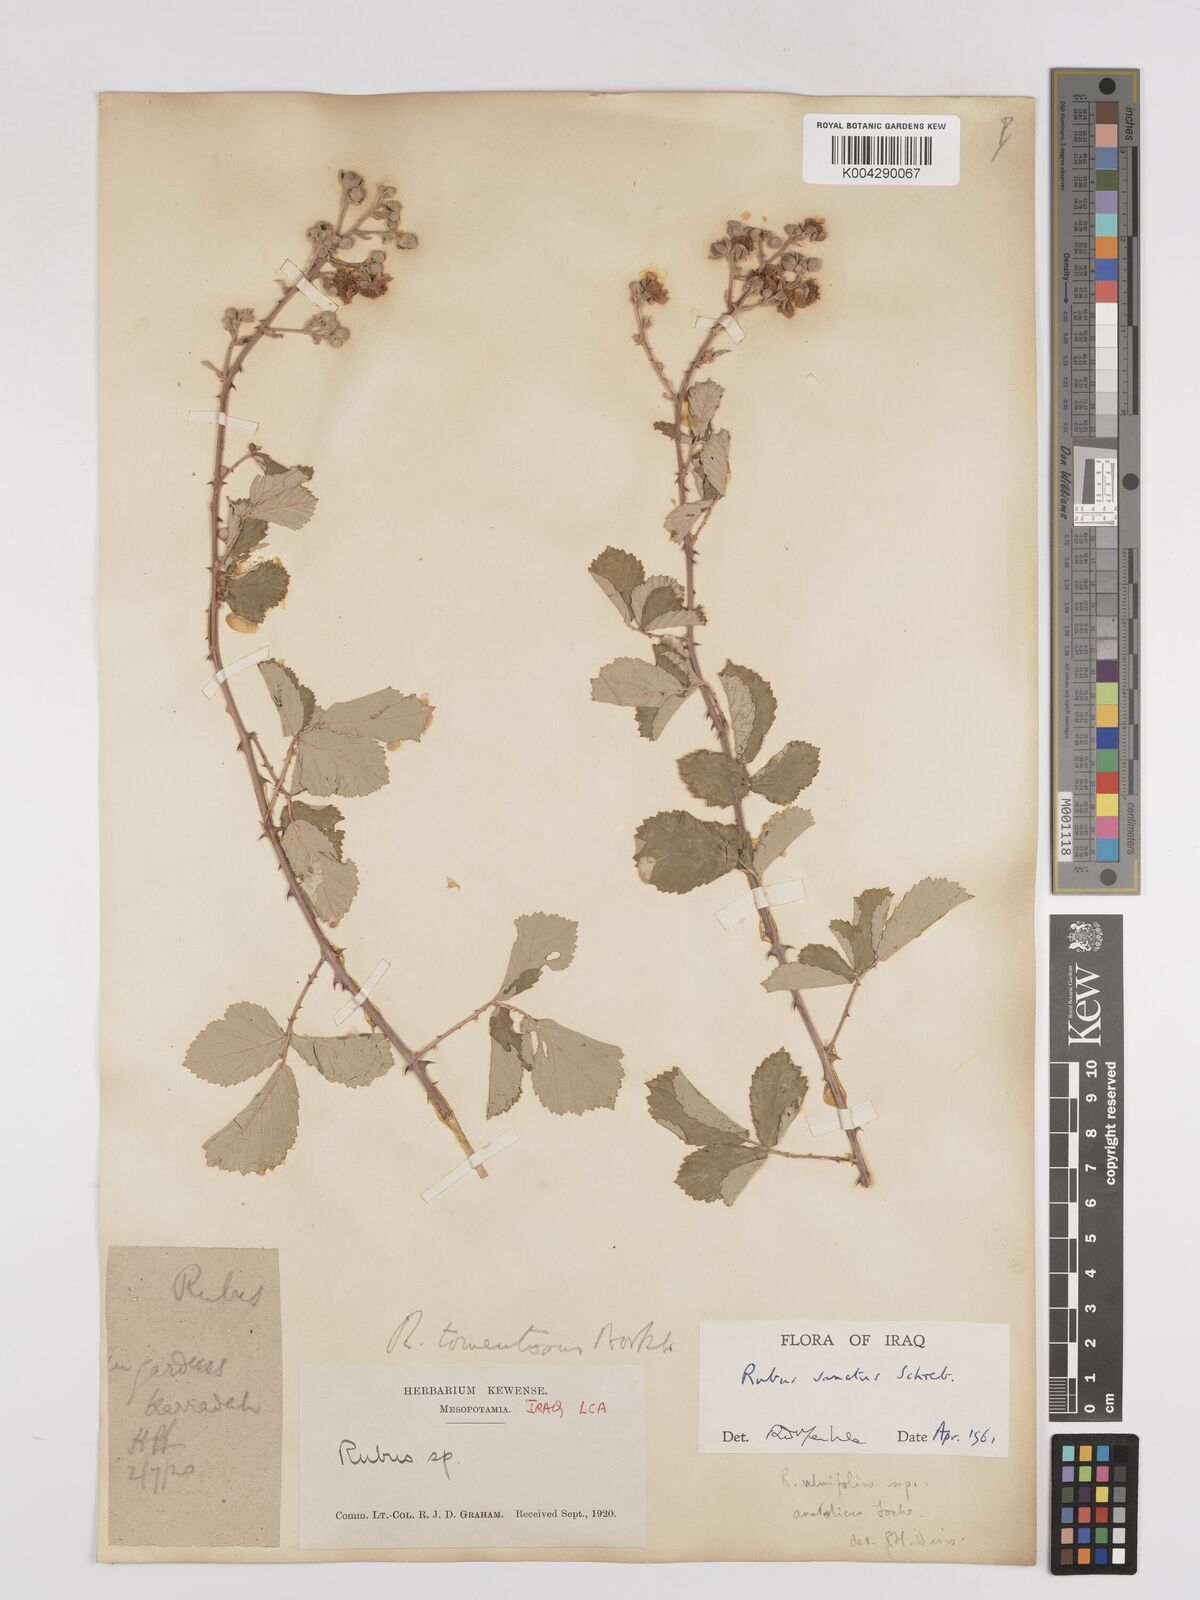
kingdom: Plantae
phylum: Tracheophyta
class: Magnoliopsida
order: Rosales
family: Rosaceae
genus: Rubus
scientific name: Rubus sanctus
